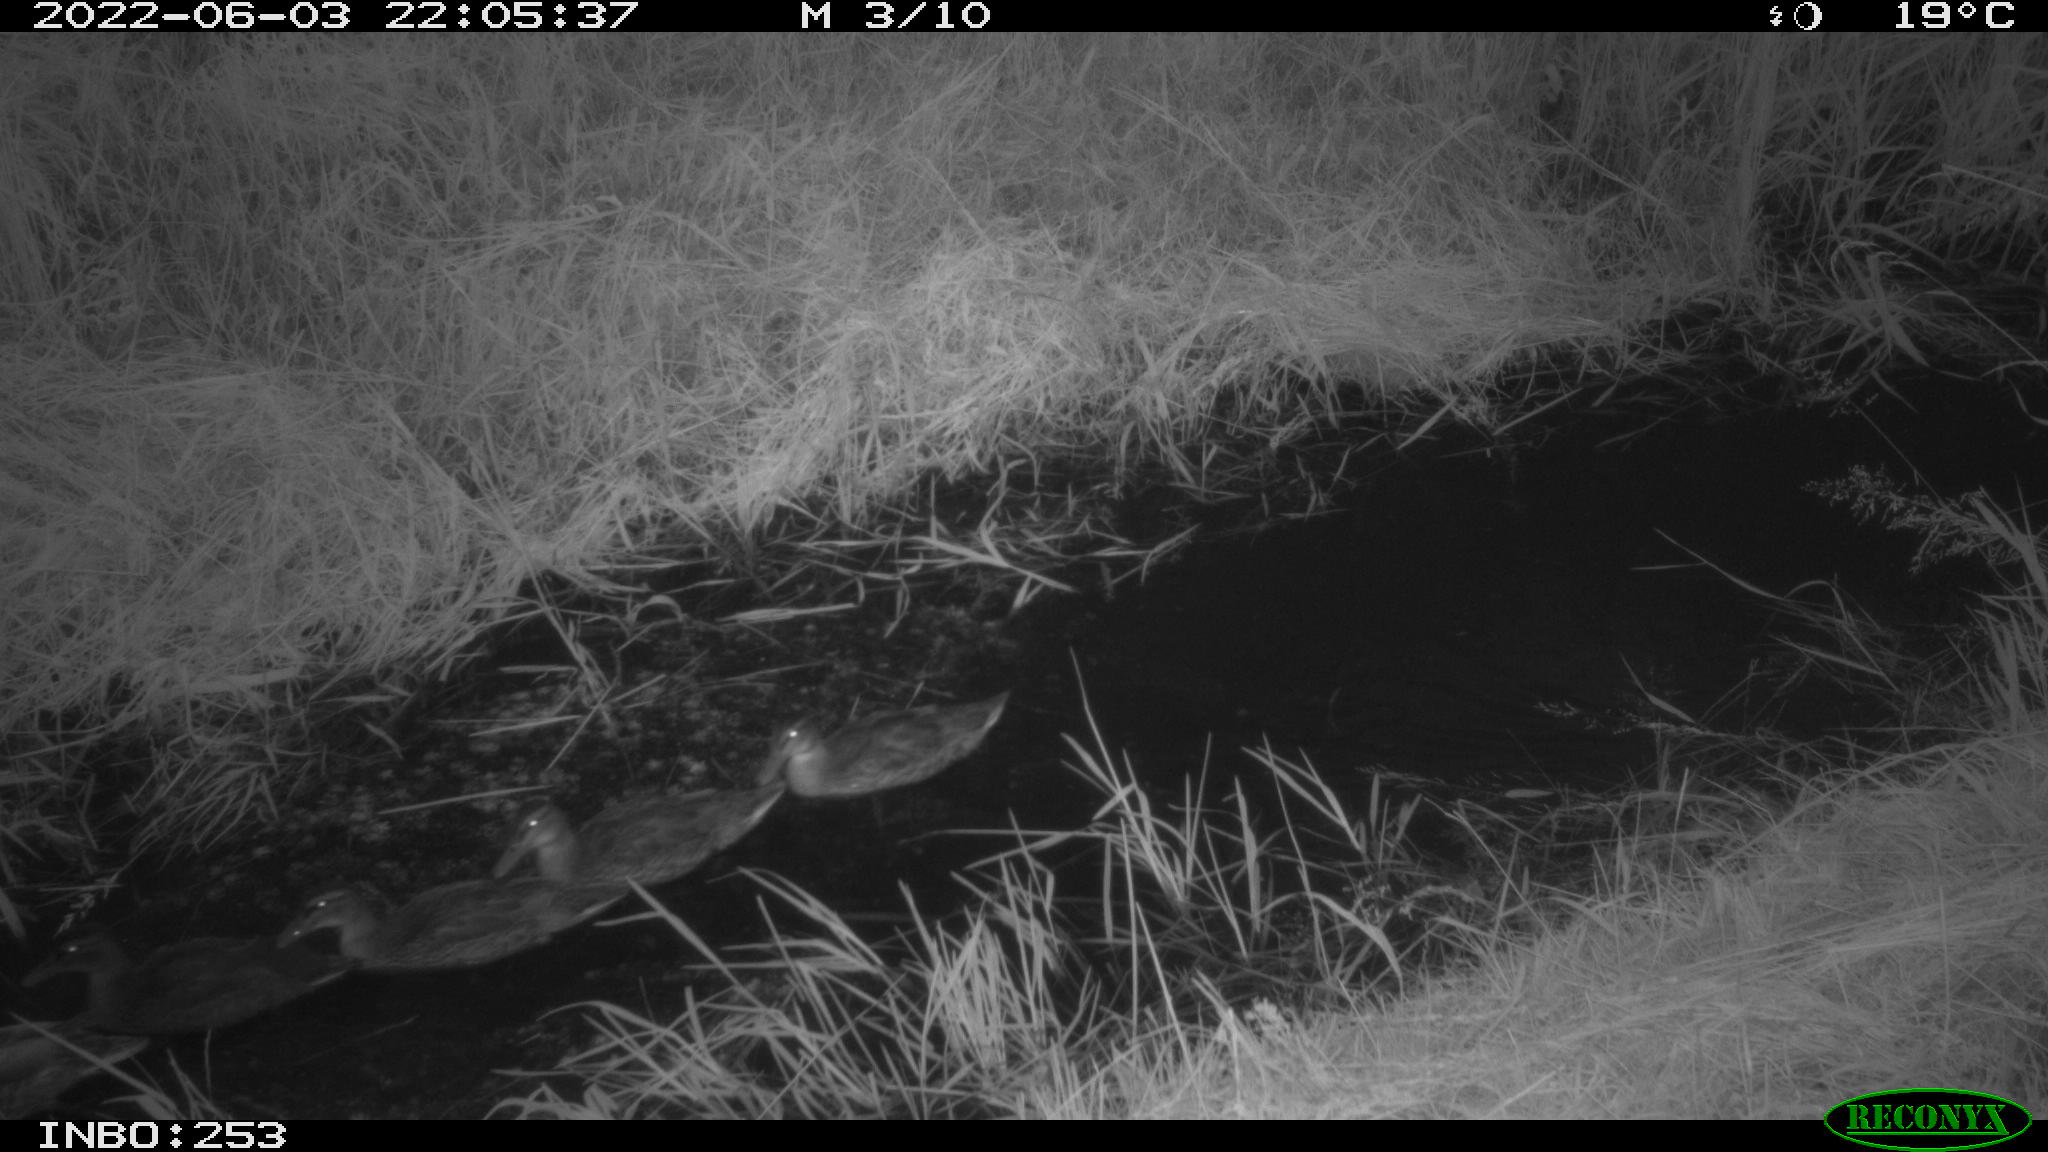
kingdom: Animalia
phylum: Chordata
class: Aves
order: Anseriformes
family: Anatidae
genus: Anas
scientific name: Anas platyrhynchos
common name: Mallard
